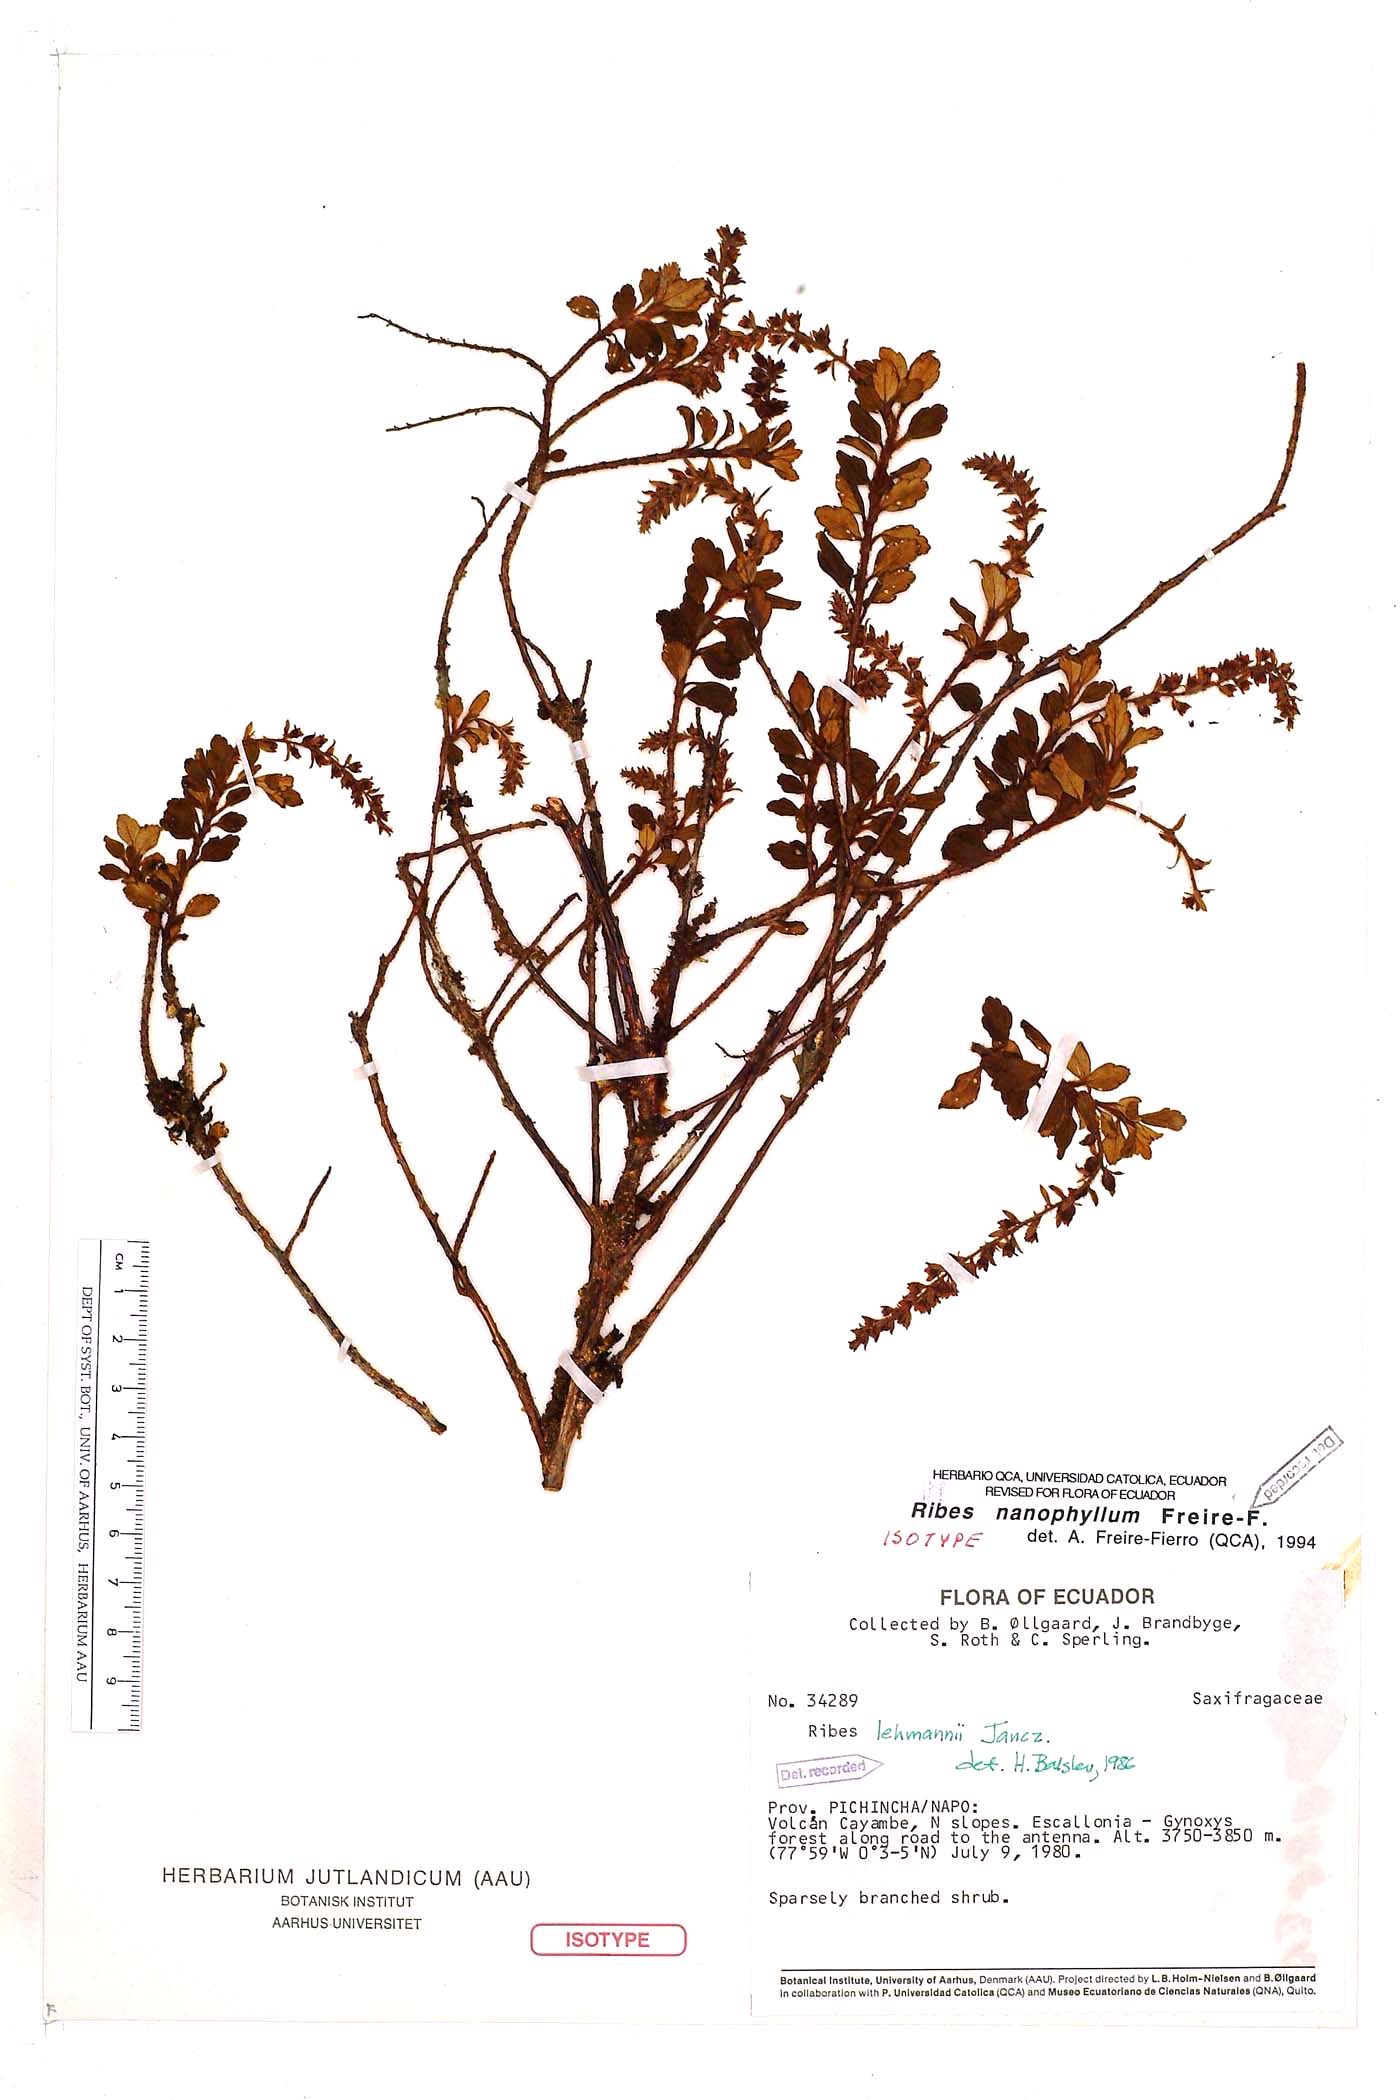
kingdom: Plantae
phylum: Tracheophyta
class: Magnoliopsida
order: Saxifragales
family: Grossulariaceae
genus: Ribes
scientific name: Ribes nanophyllum
